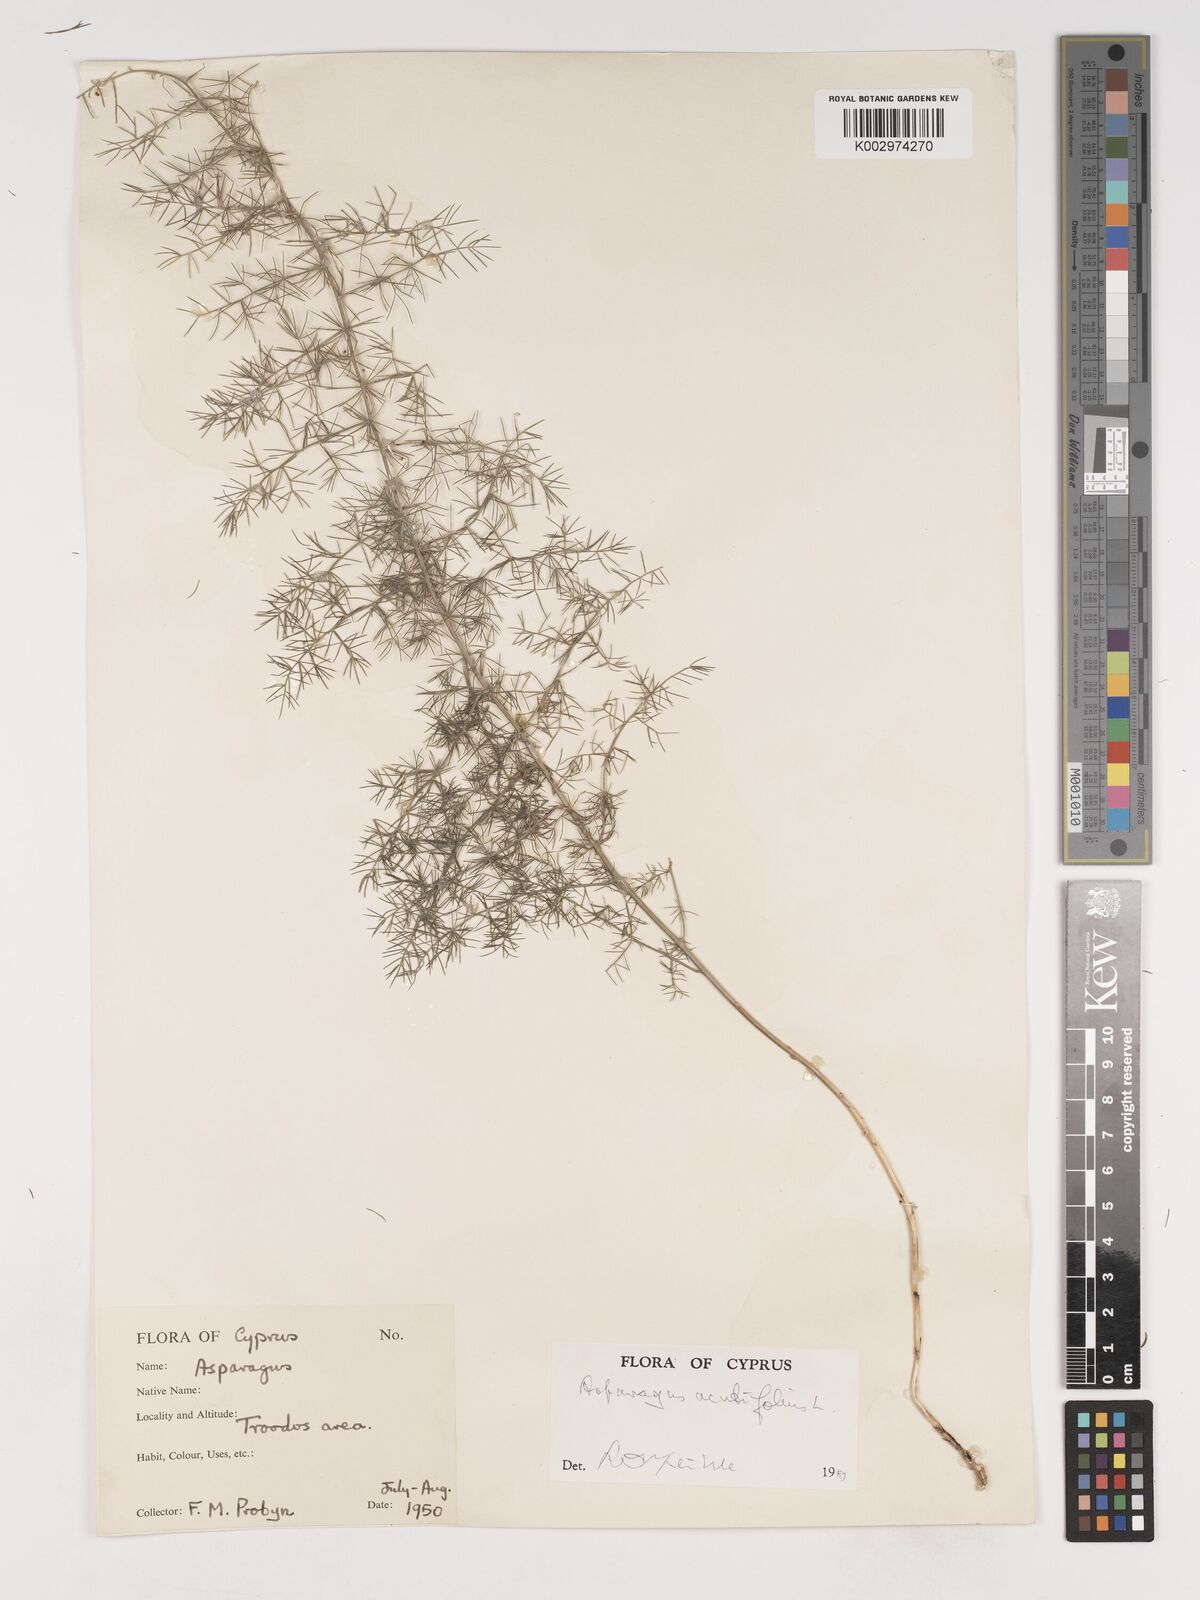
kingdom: Plantae
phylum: Tracheophyta
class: Liliopsida
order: Asparagales
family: Asparagaceae
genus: Asparagus
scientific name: Asparagus acutifolius
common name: Wild asparagus
